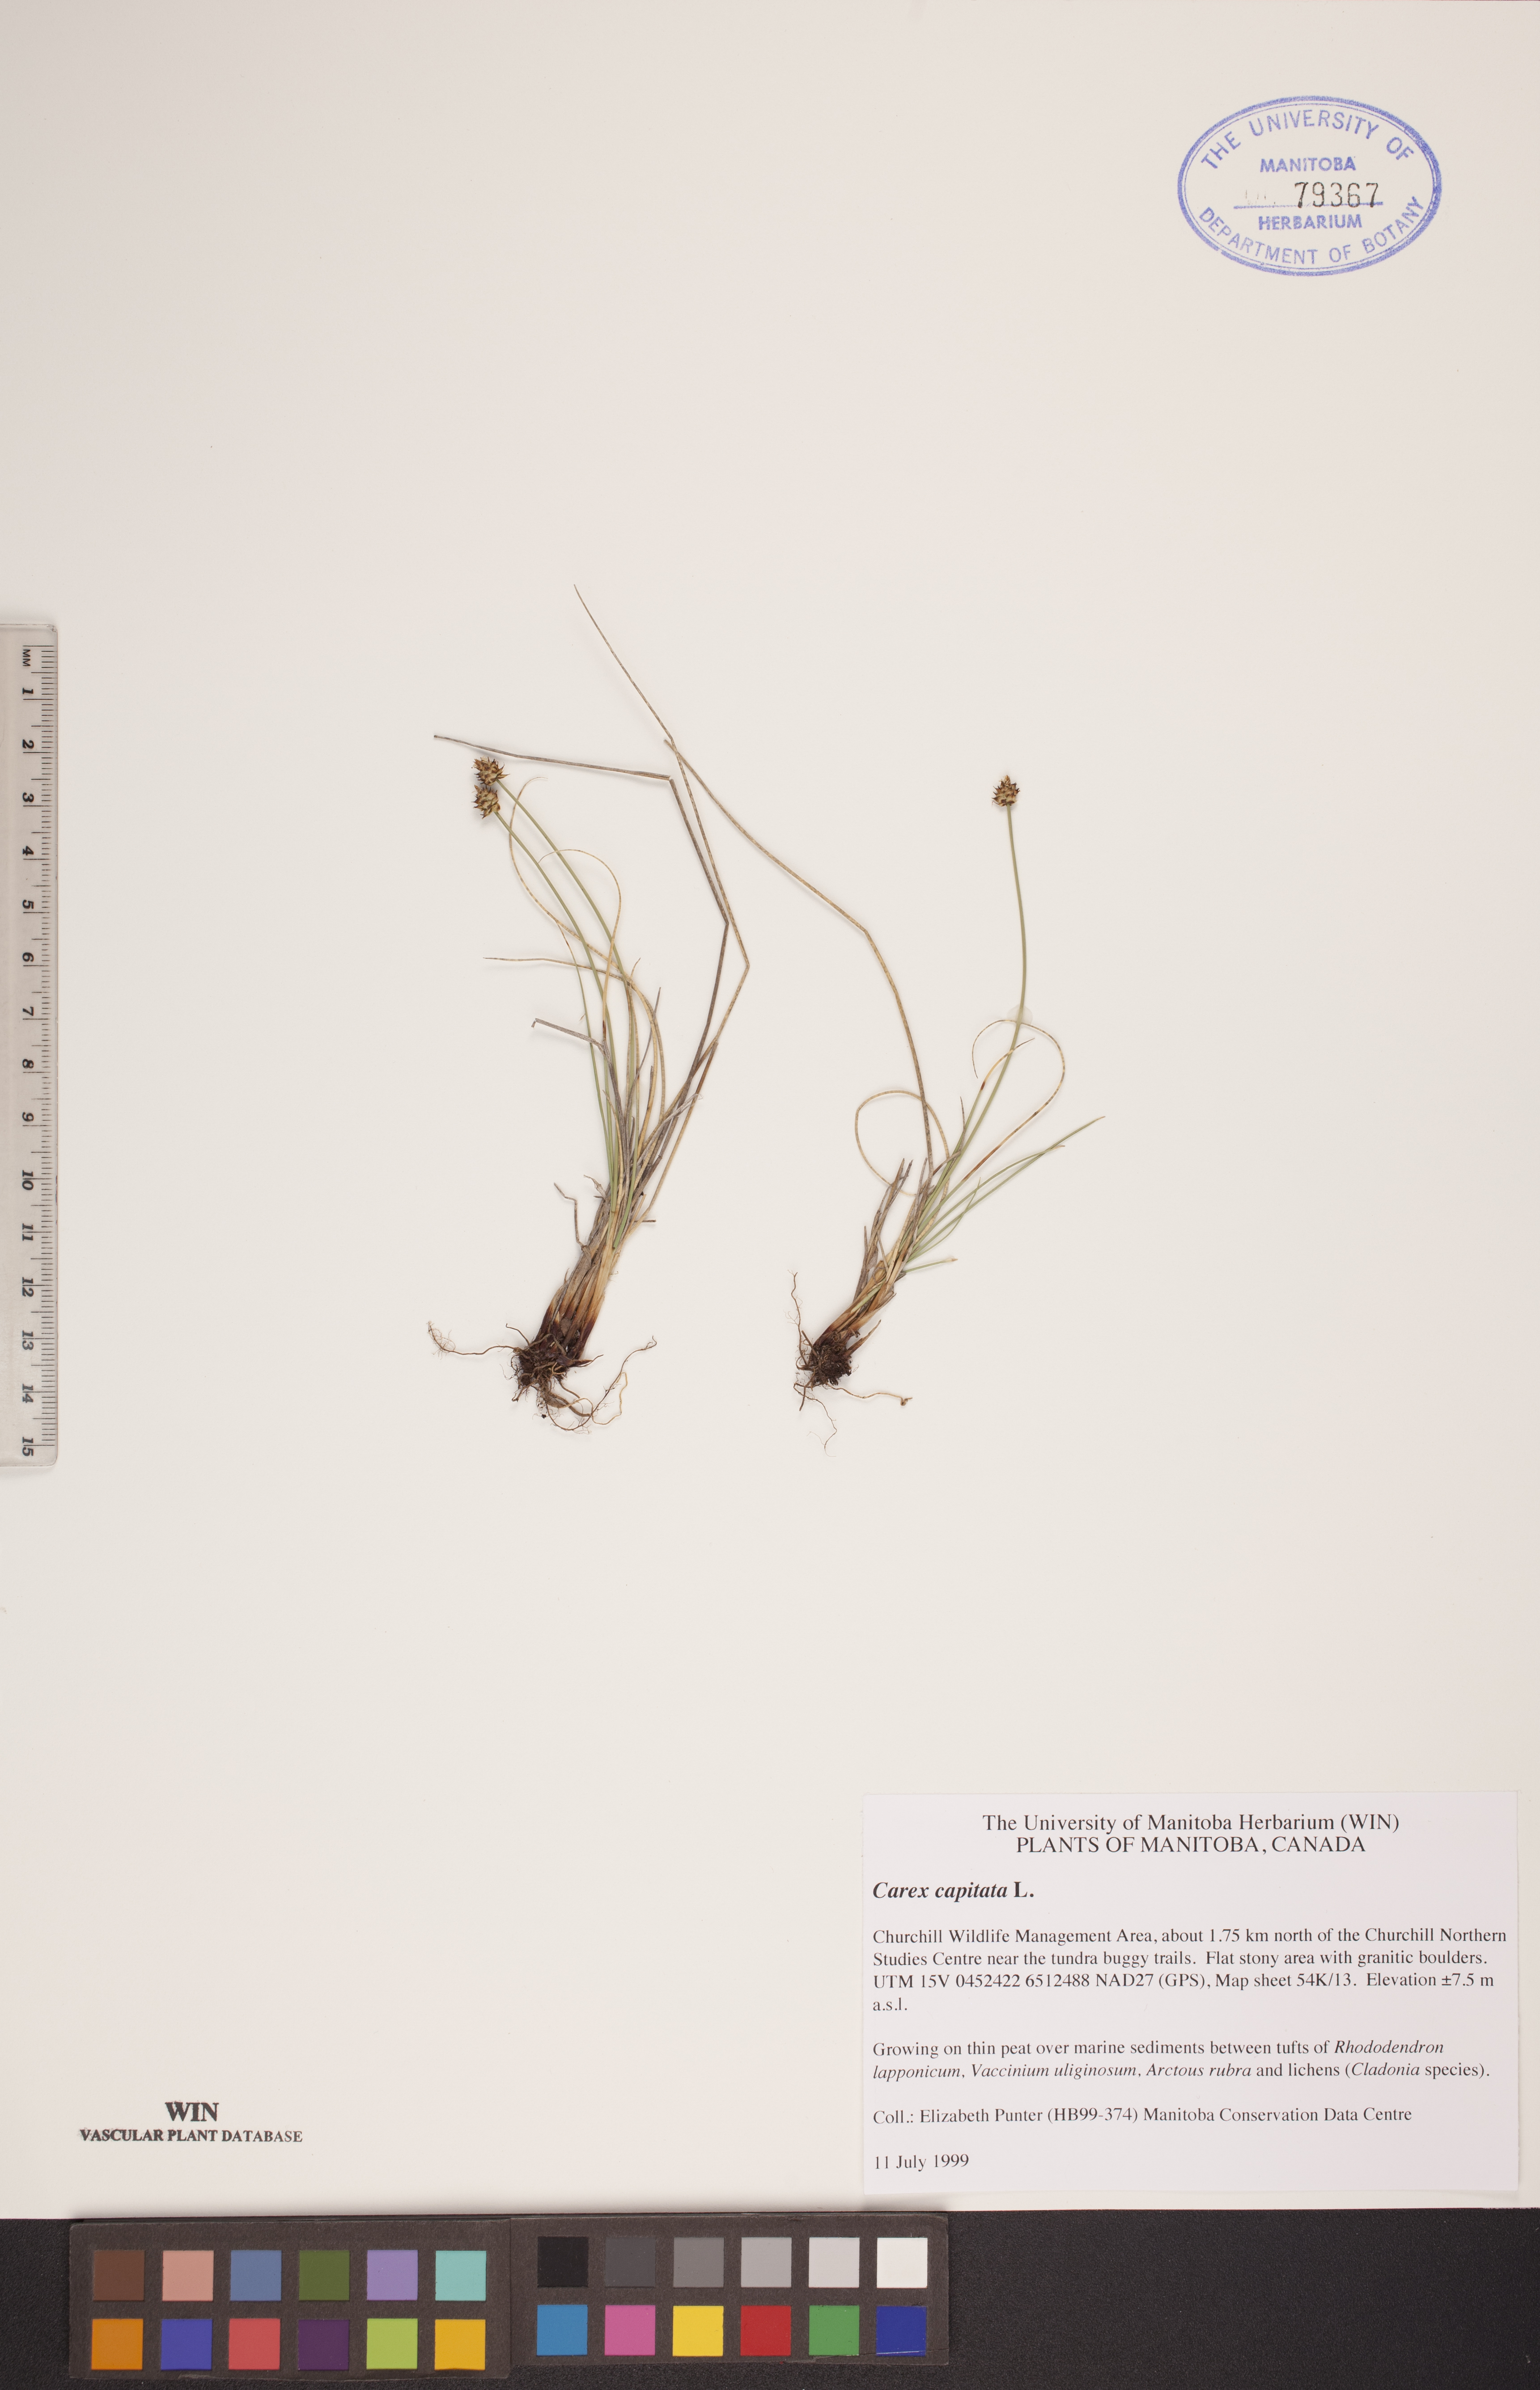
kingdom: Plantae
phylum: Tracheophyta
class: Liliopsida
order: Poales
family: Cyperaceae
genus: Carex
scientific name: Carex capitata
